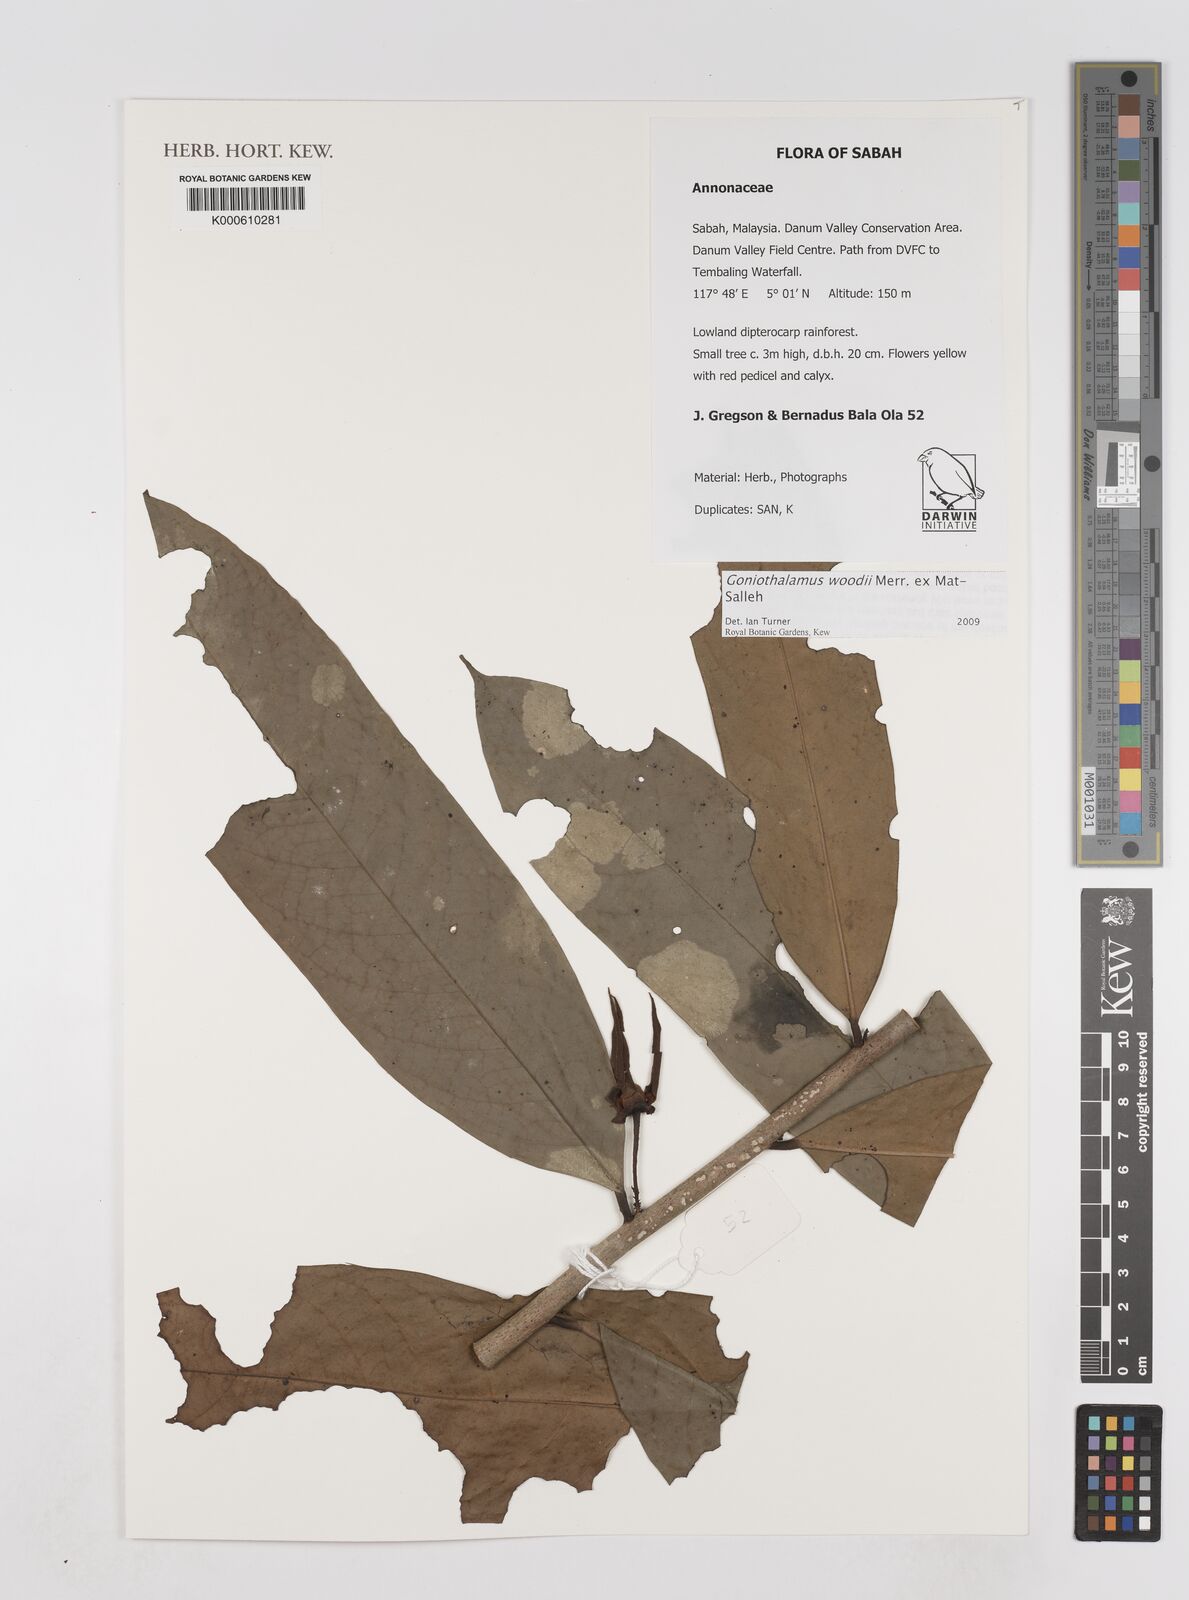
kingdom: Plantae
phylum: Tracheophyta
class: Magnoliopsida
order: Magnoliales
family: Annonaceae
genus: Goniothalamus
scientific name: Goniothalamus woodii
